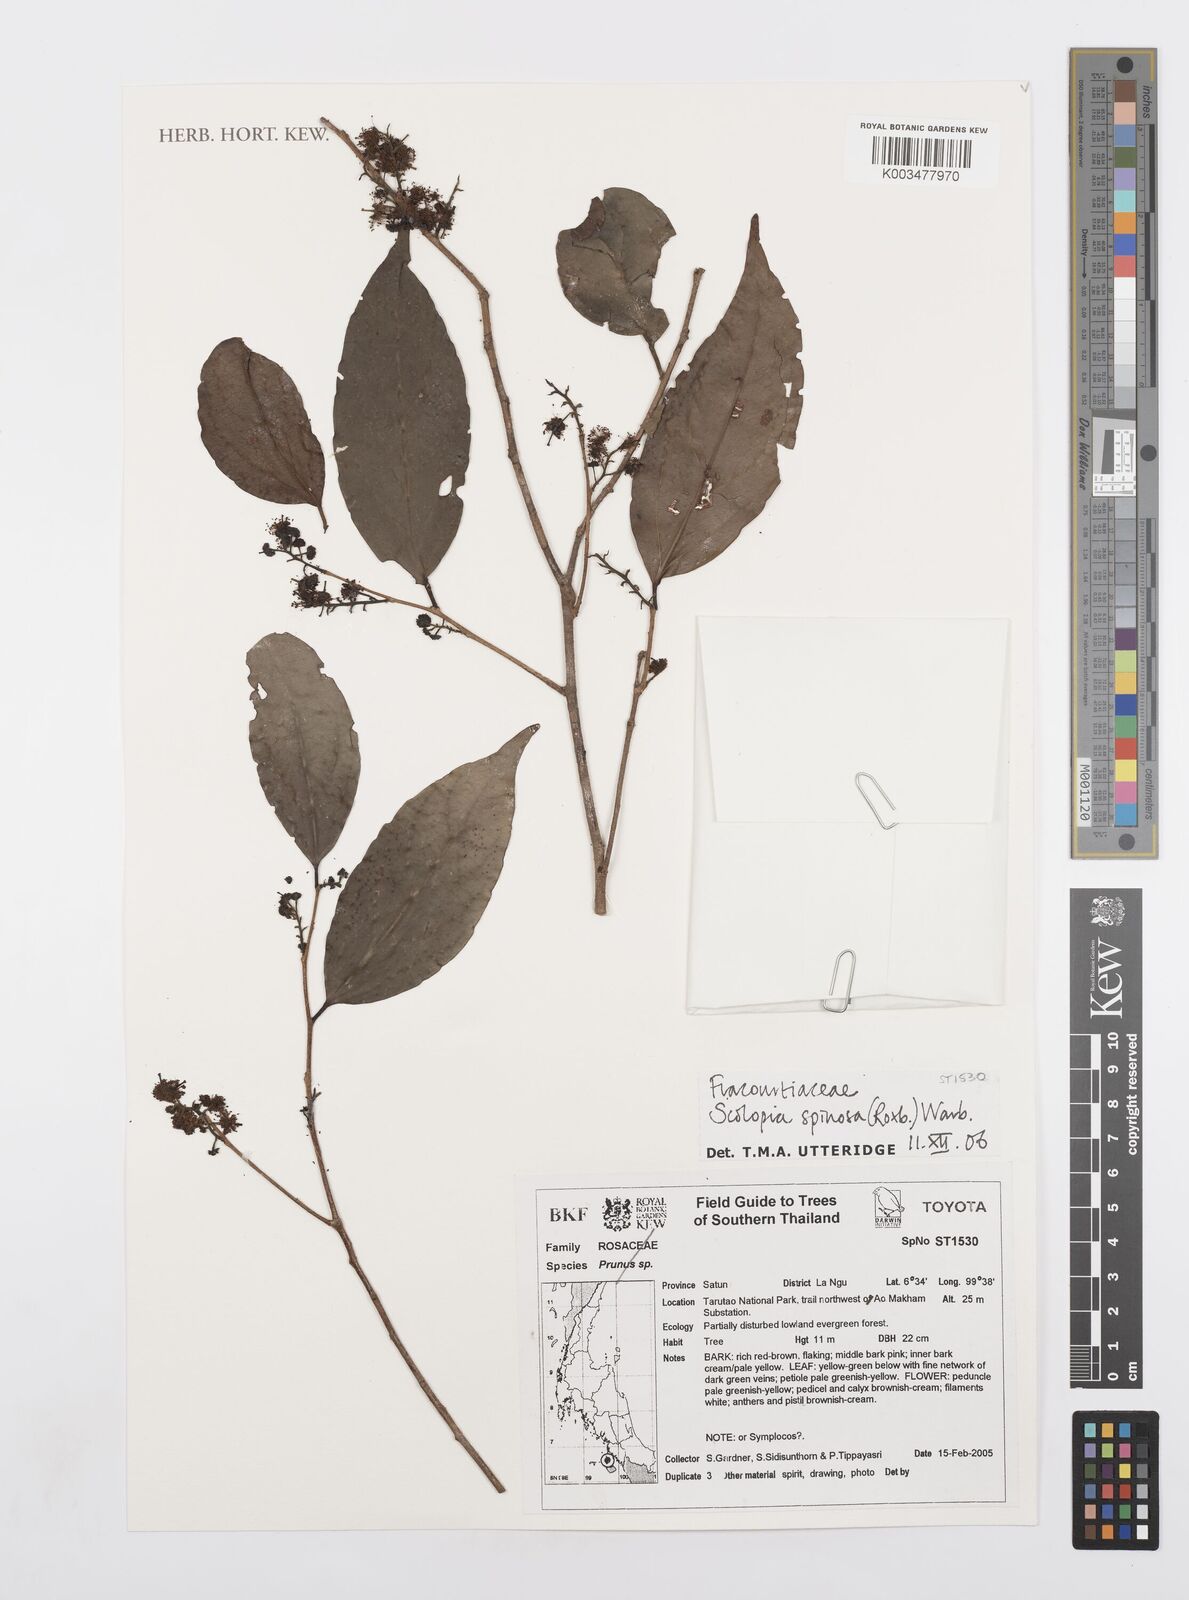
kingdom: Plantae
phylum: Tracheophyta
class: Magnoliopsida
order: Malpighiales
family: Salicaceae
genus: Scolopia
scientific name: Scolopia spinescens
